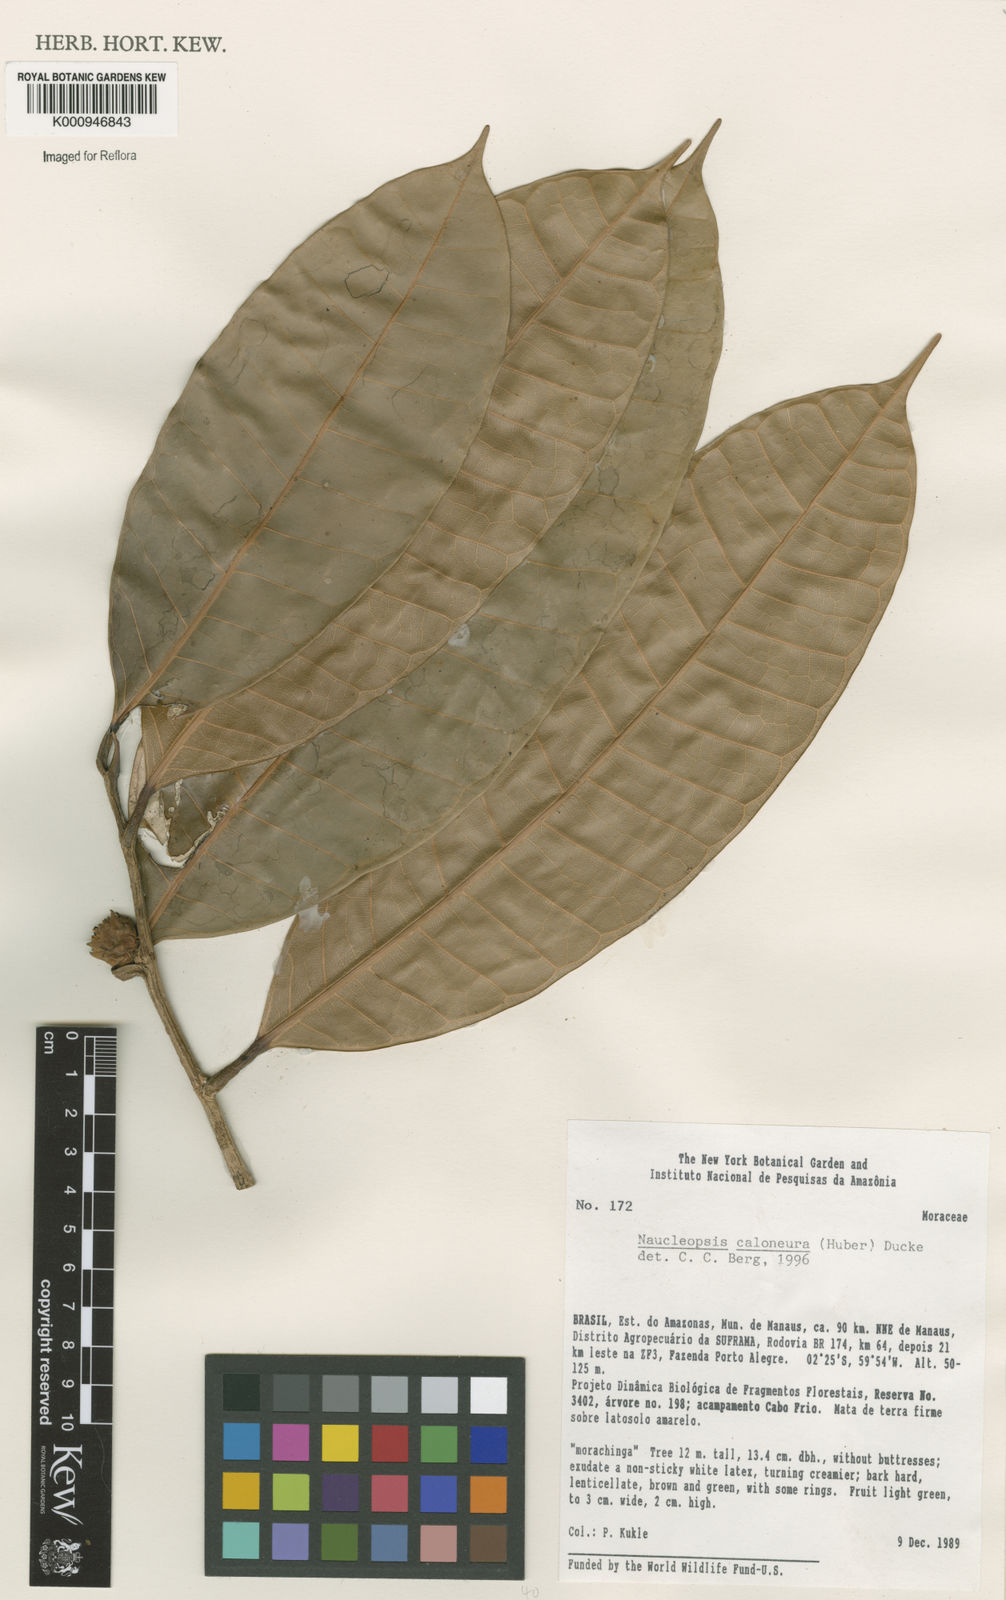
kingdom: Plantae
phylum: Tracheophyta
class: Magnoliopsida
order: Rosales
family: Moraceae
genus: Naucleopsis
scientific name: Naucleopsis caloneura
